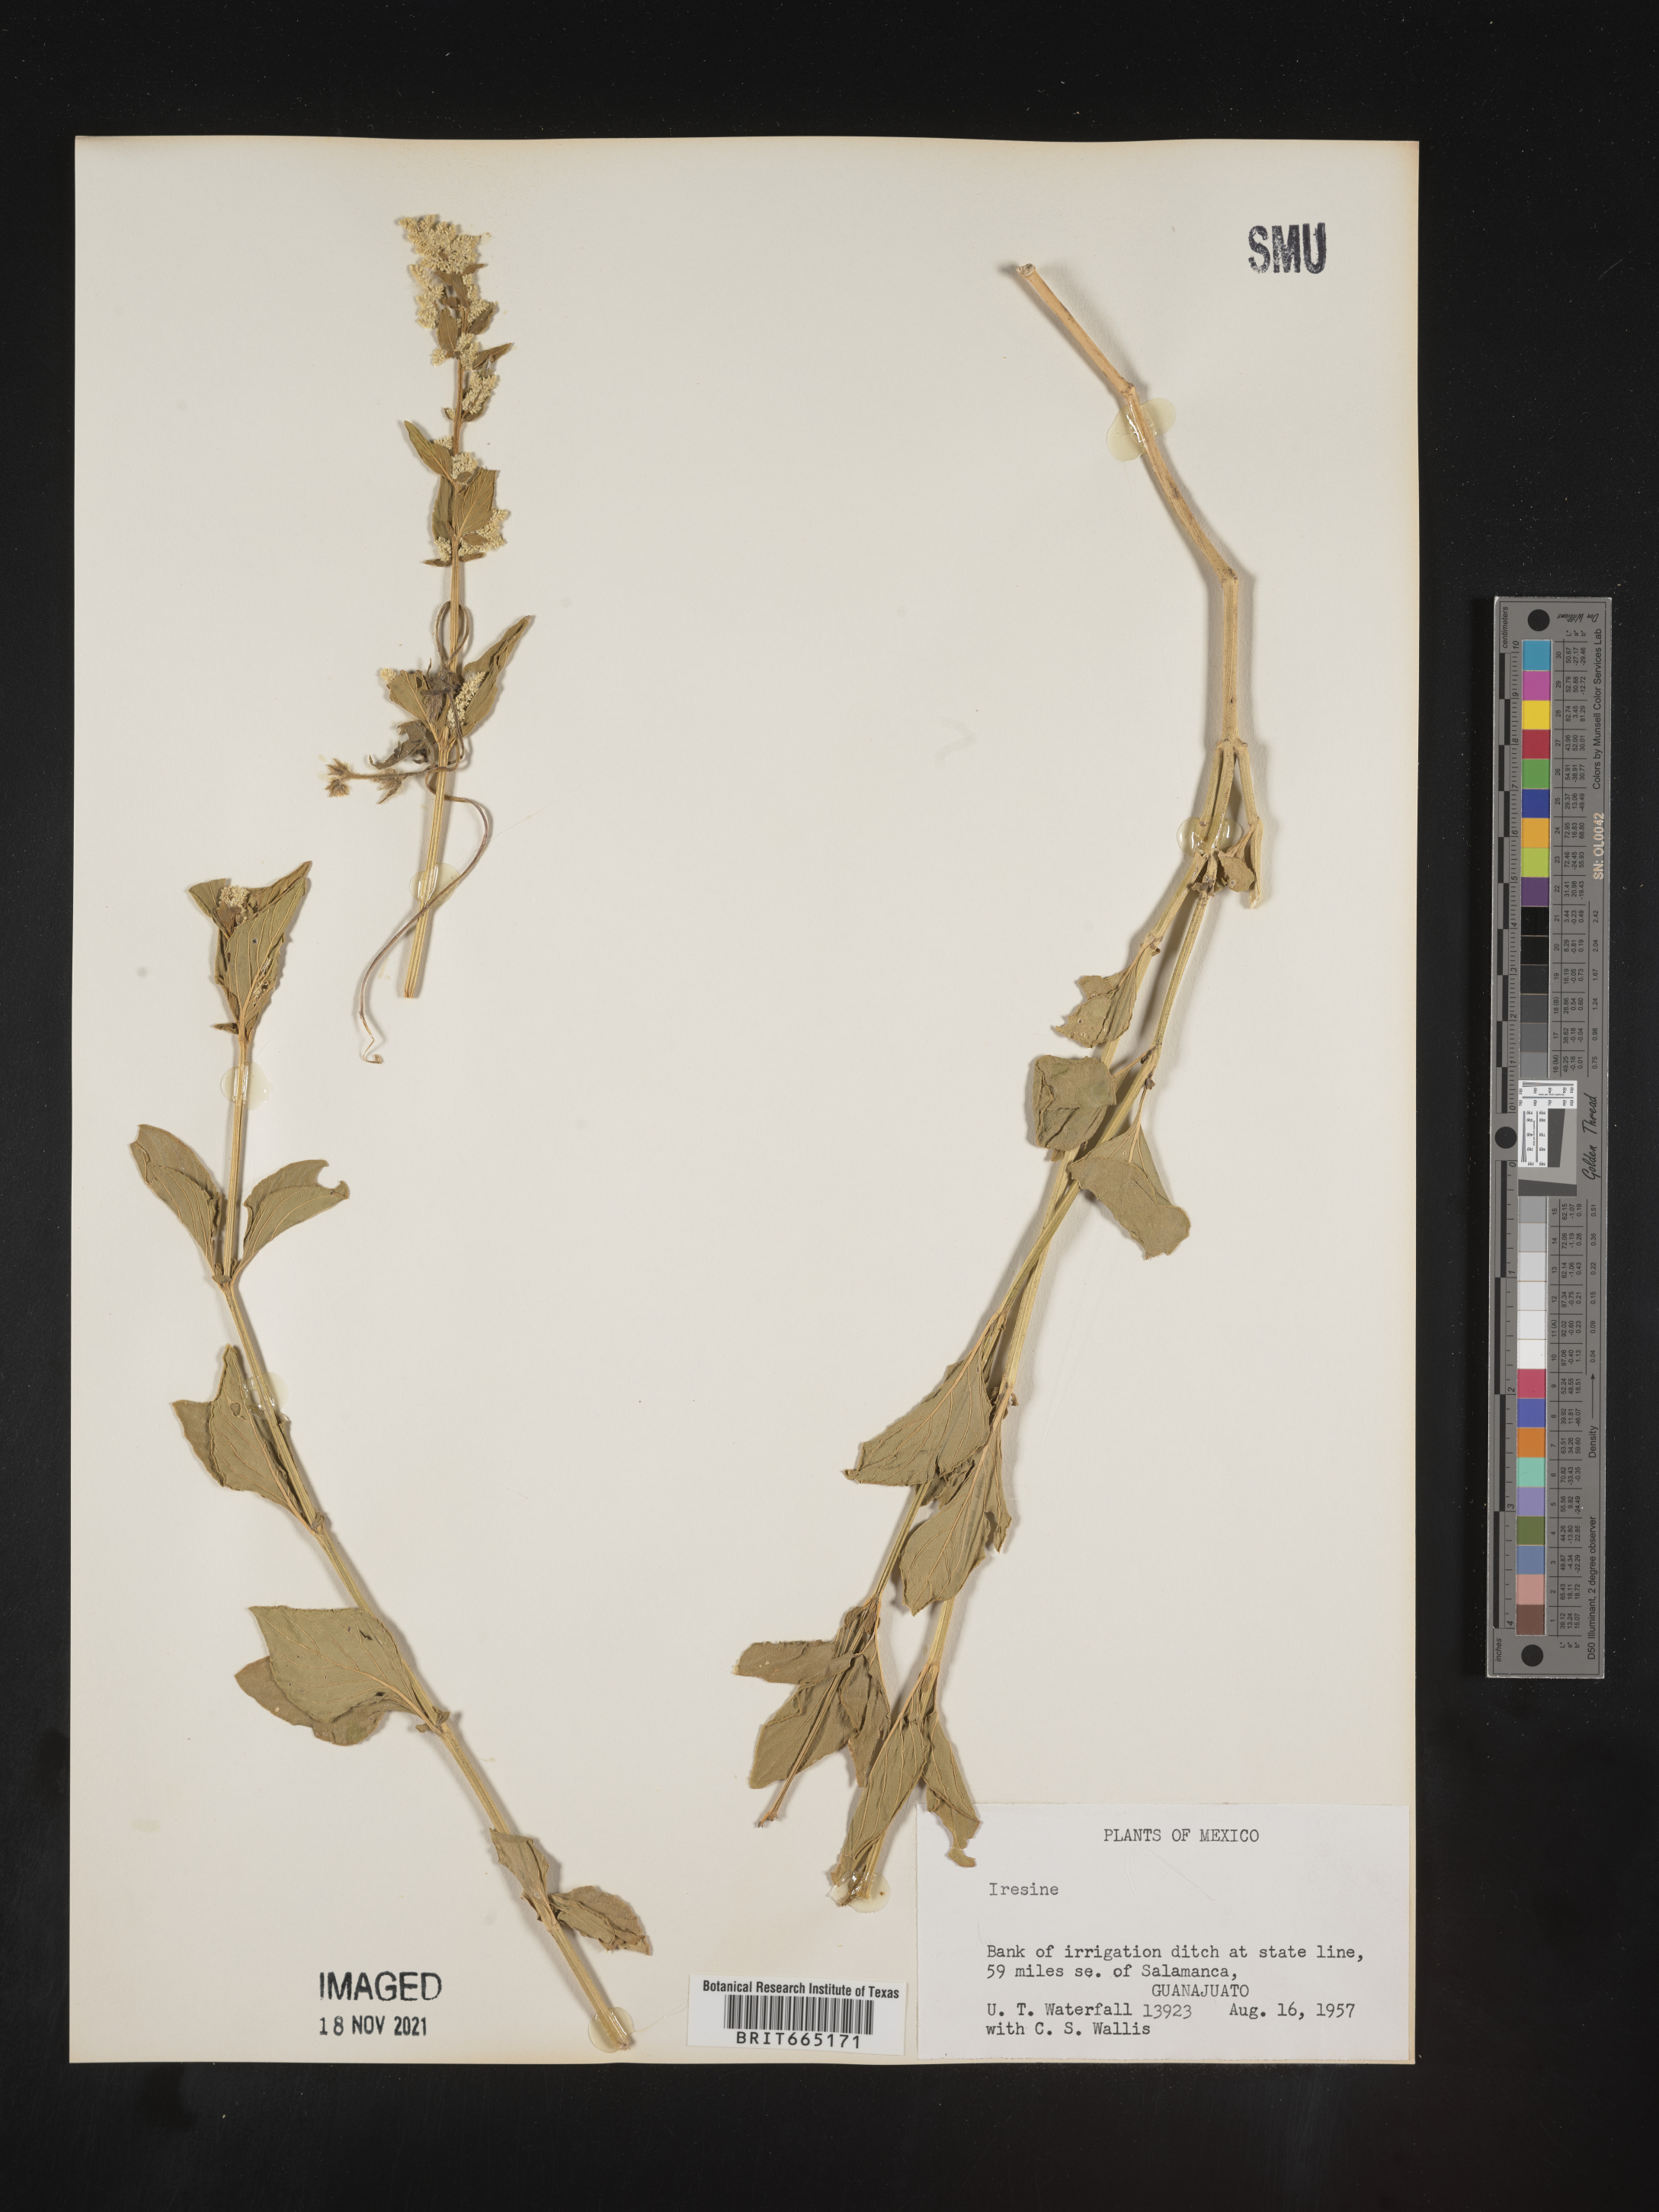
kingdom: Plantae
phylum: Tracheophyta
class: Magnoliopsida
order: Caryophyllales
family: Amaranthaceae
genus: Iresine
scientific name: Iresine
